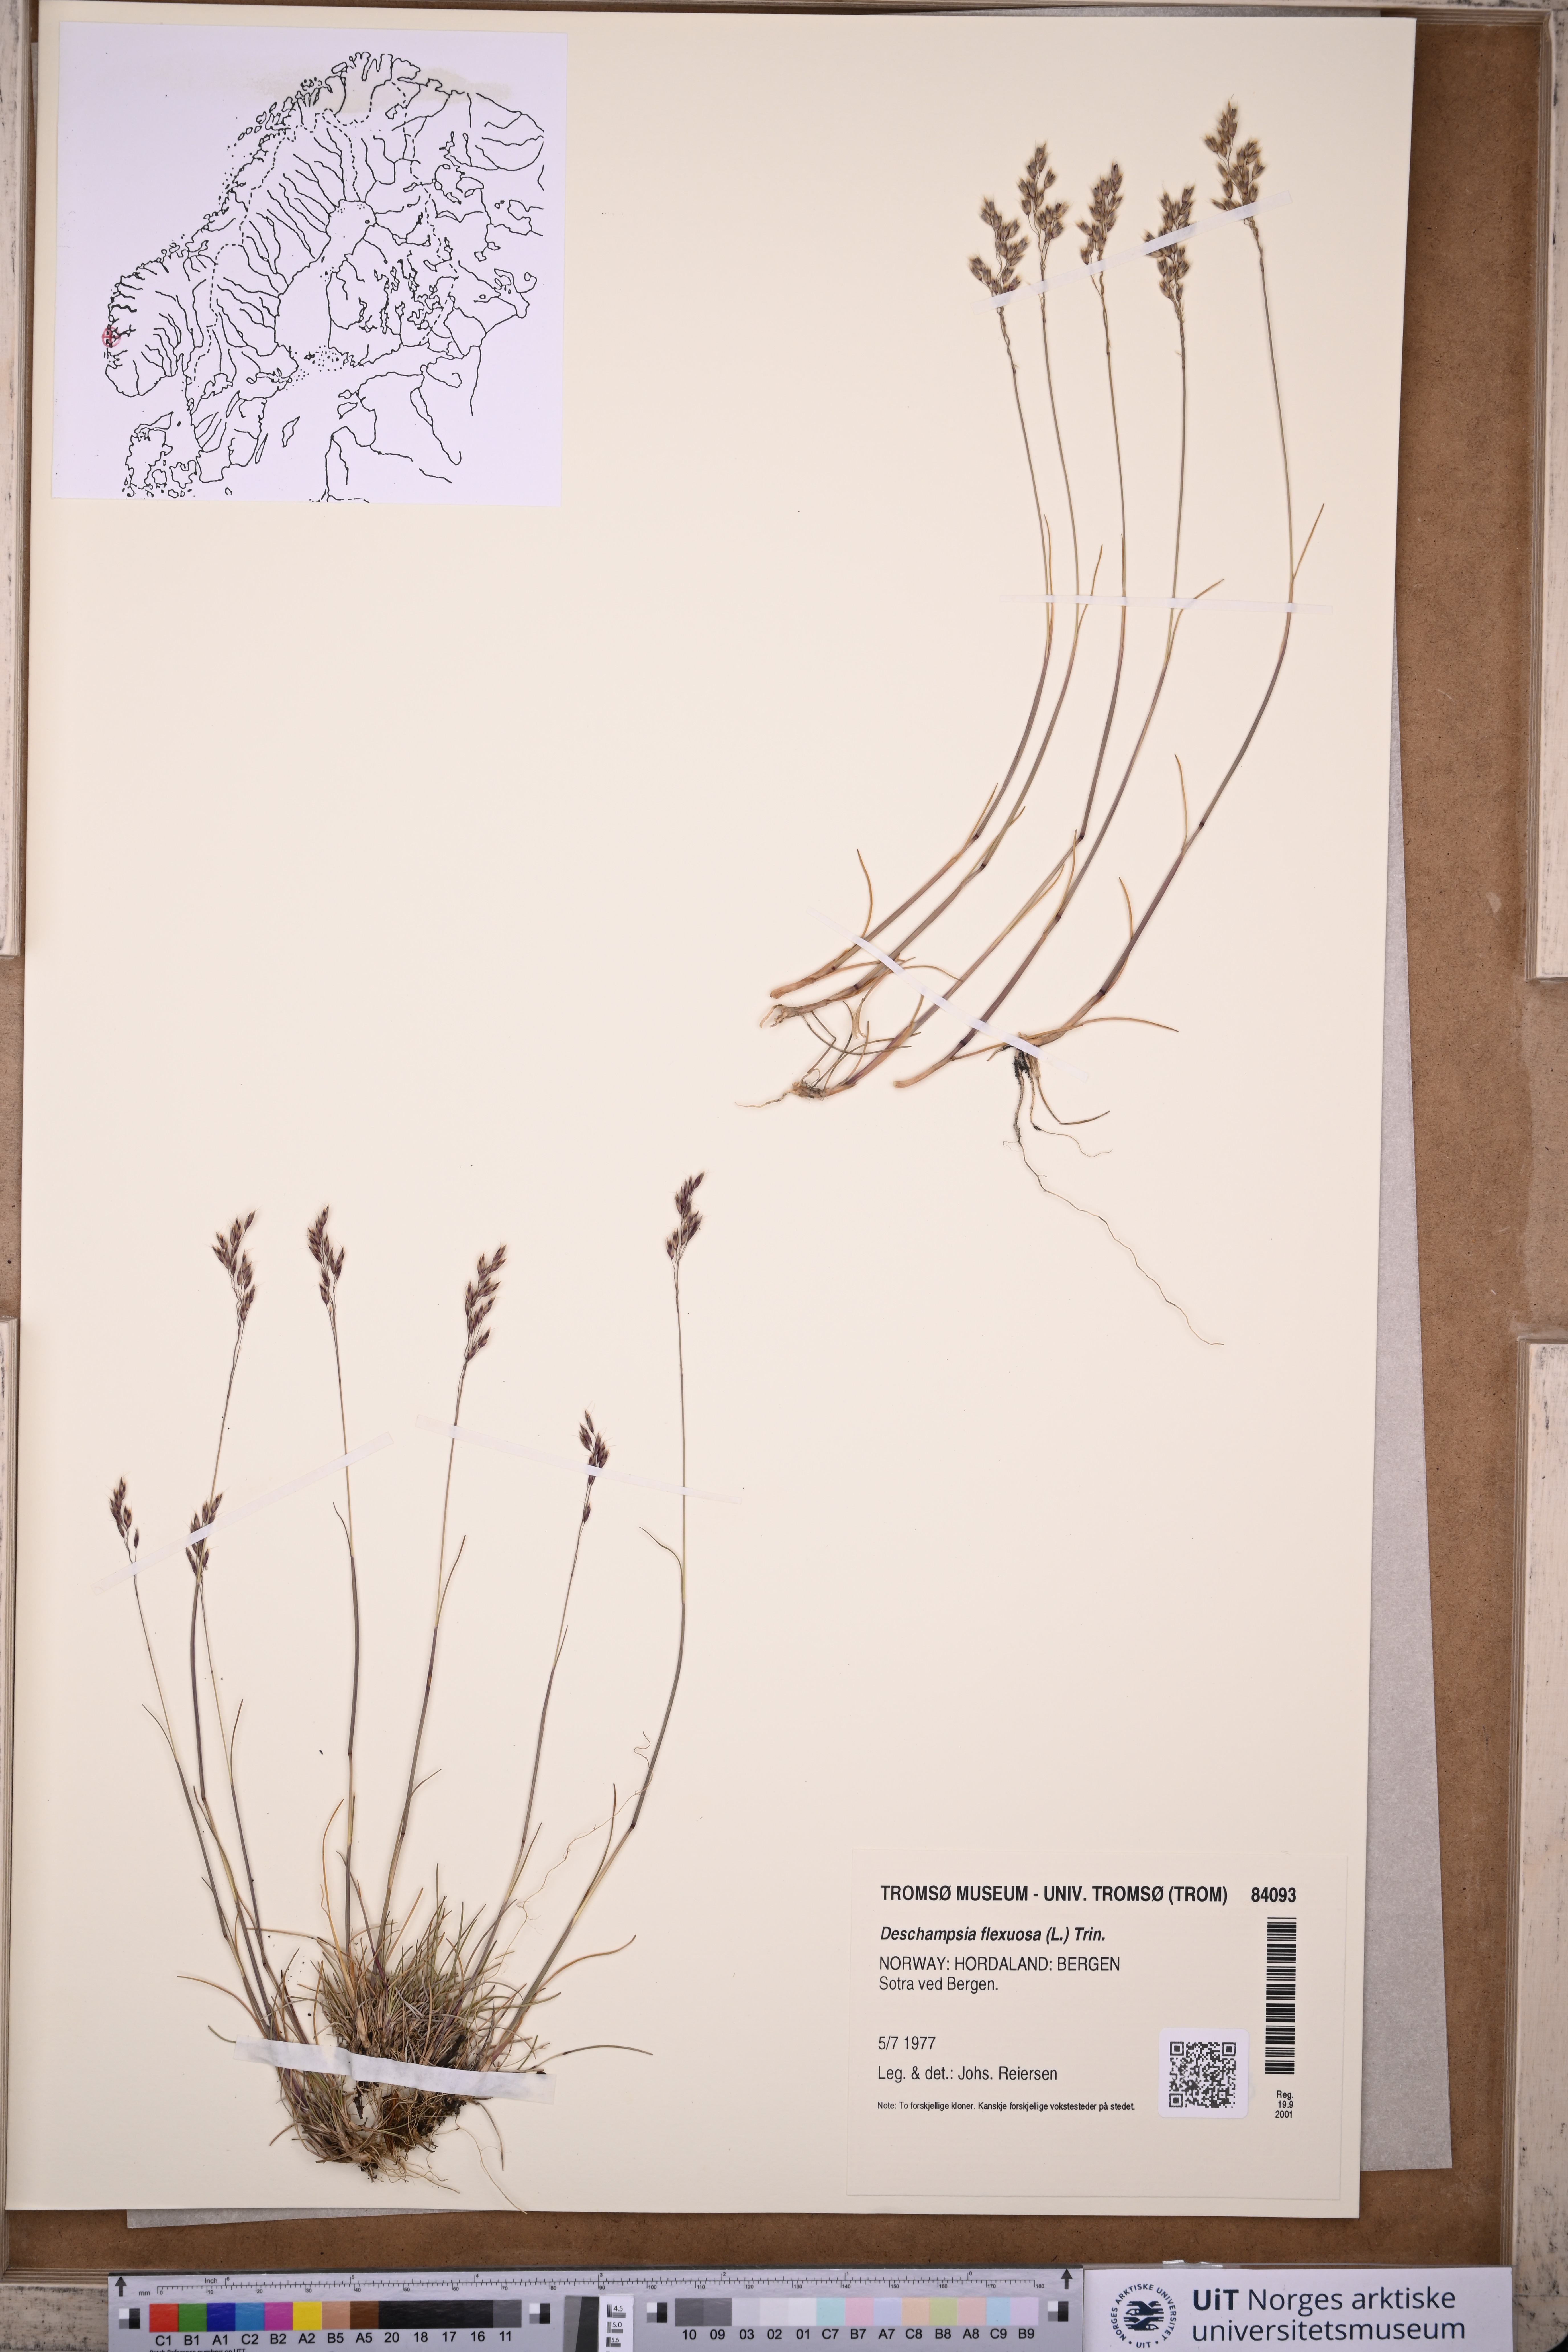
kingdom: Plantae
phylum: Tracheophyta
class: Liliopsida
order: Poales
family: Poaceae
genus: Avenella
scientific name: Avenella flexuosa
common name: Wavy hairgrass
